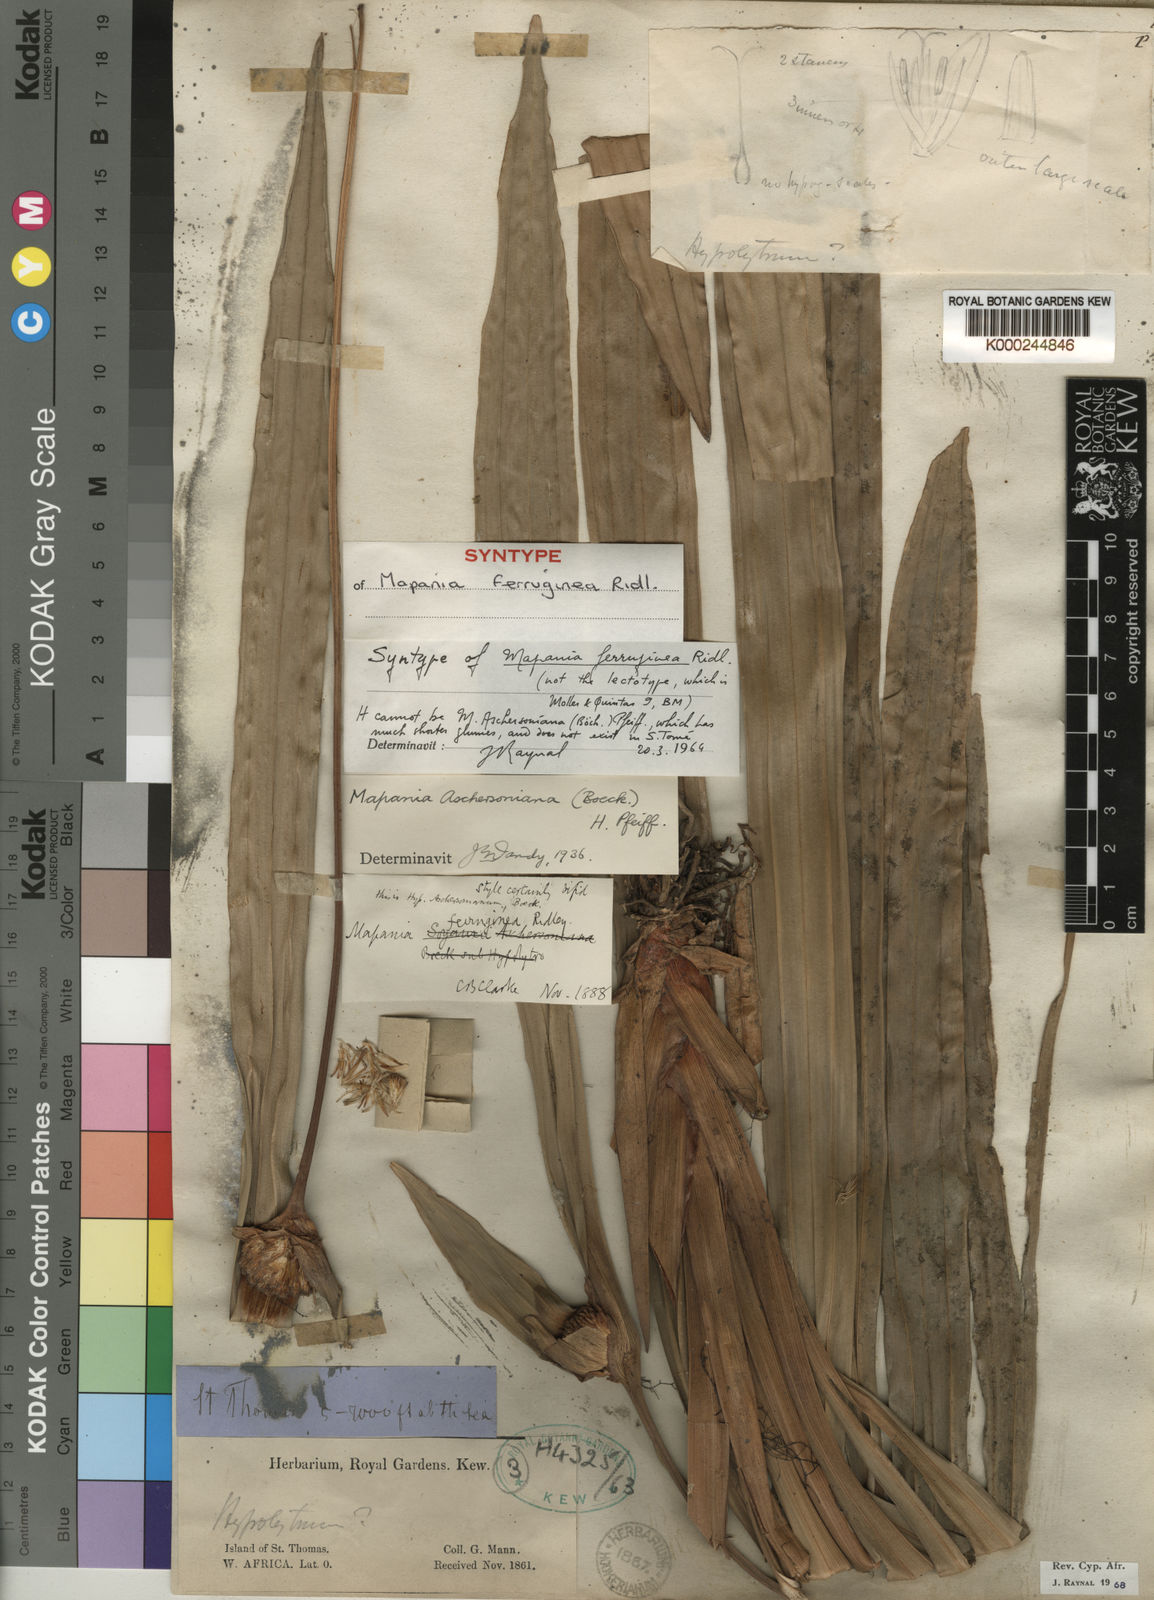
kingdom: Plantae
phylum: Tracheophyta
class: Liliopsida
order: Poales
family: Cyperaceae
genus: Mapania
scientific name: Mapania ferruginea
